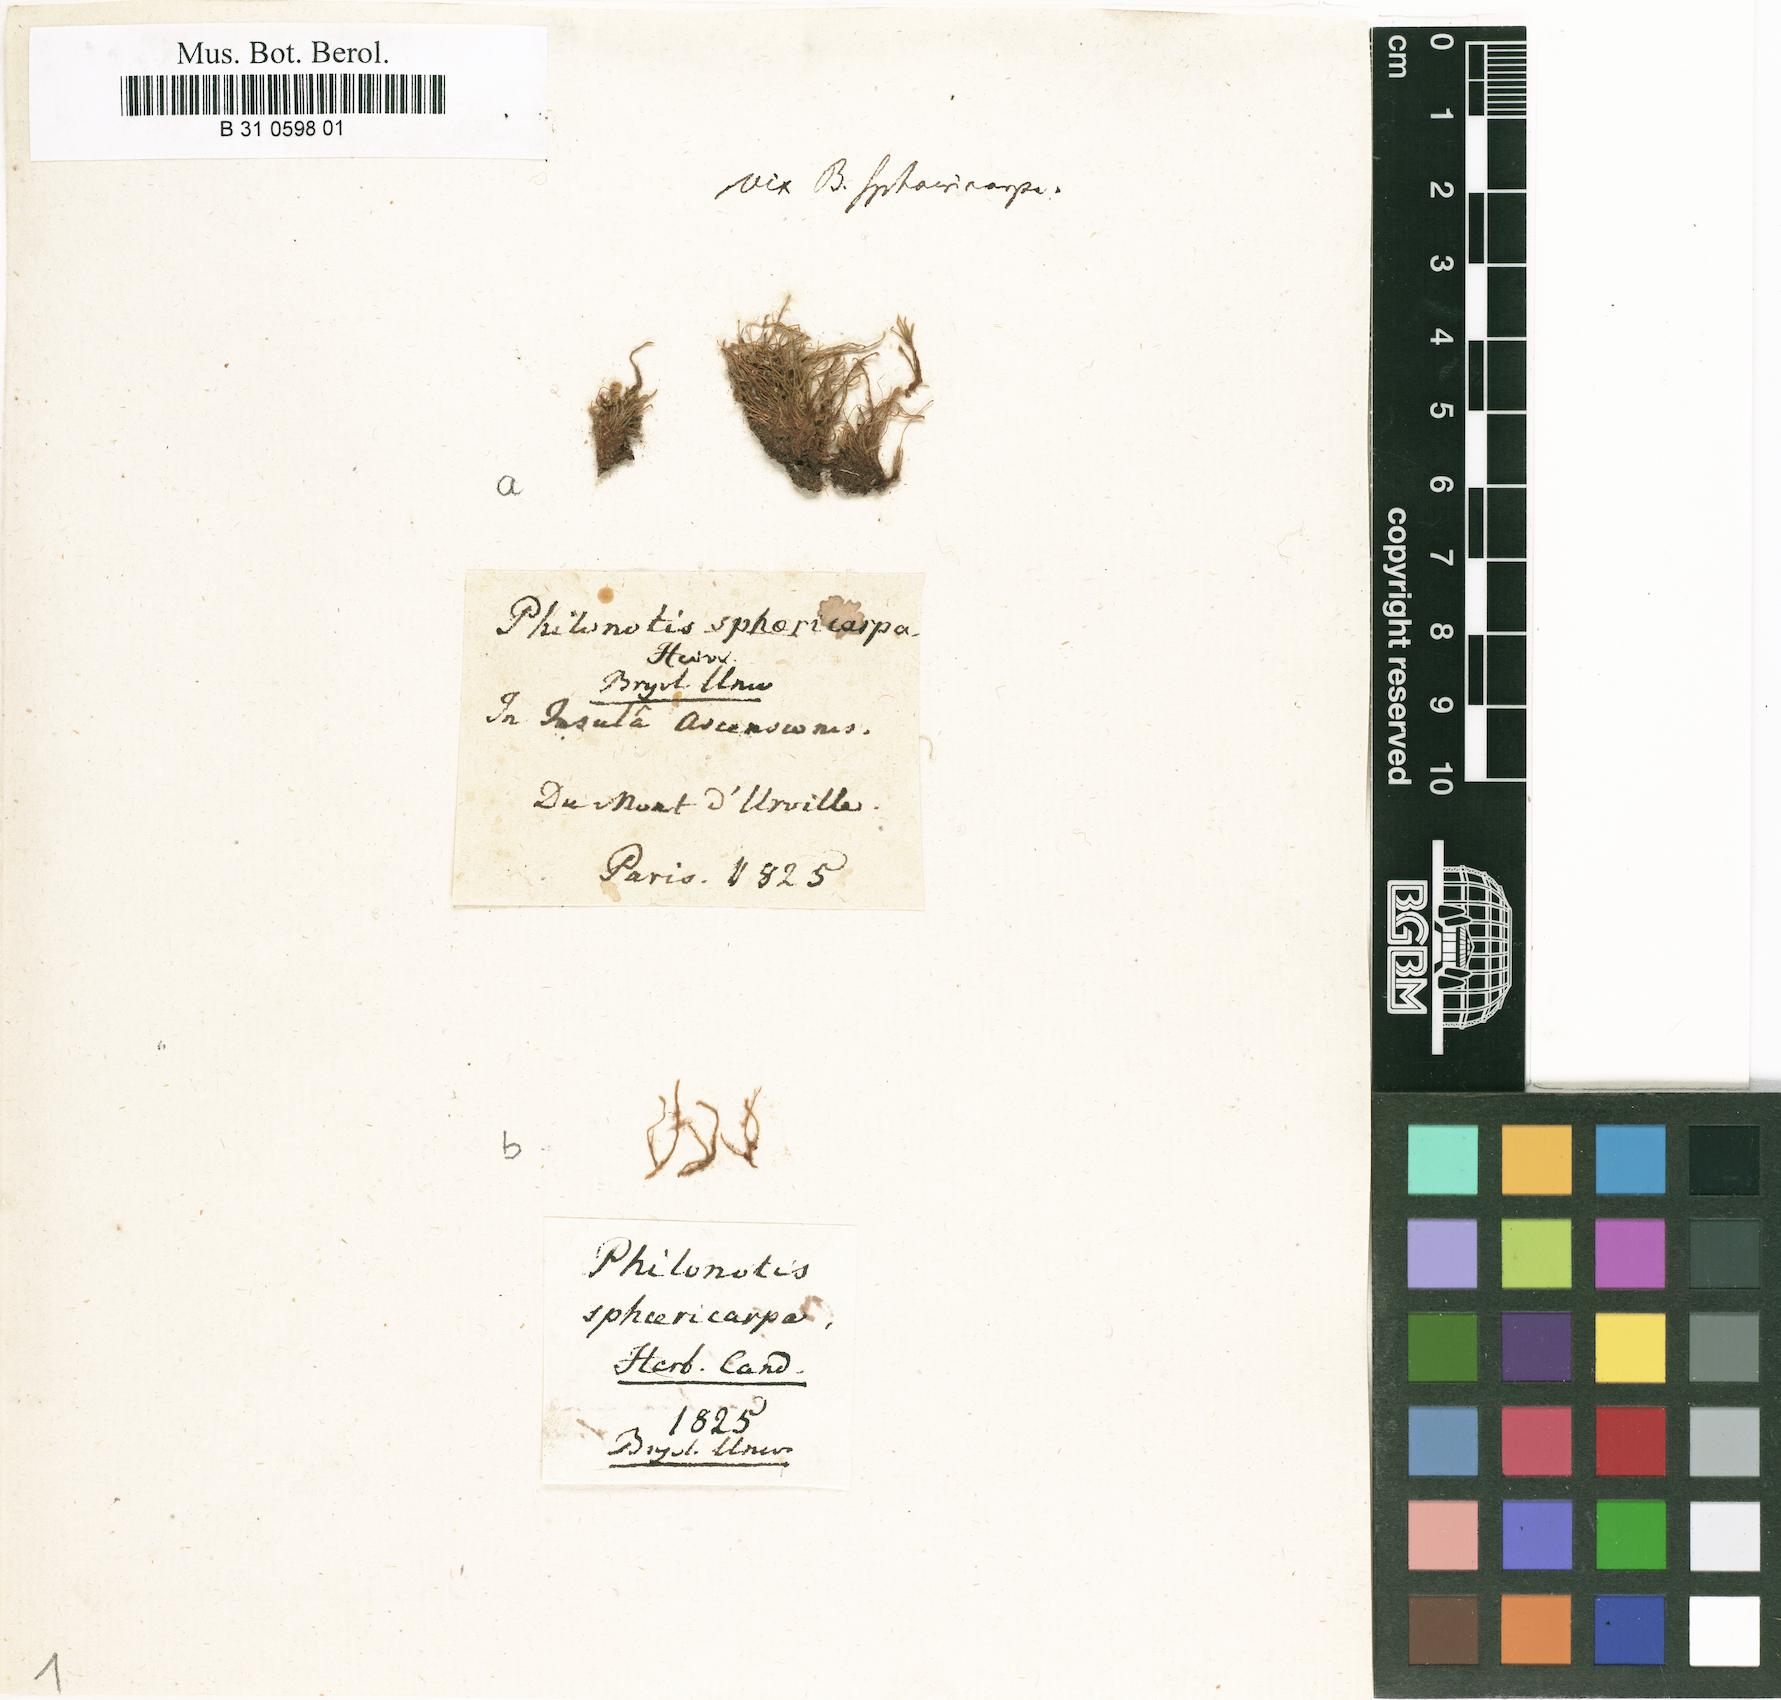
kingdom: Plantae
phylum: Bryophyta
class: Bryopsida
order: Bartramiales
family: Bartramiaceae
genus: Philonotis
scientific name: Philonotis sphaericarpa
